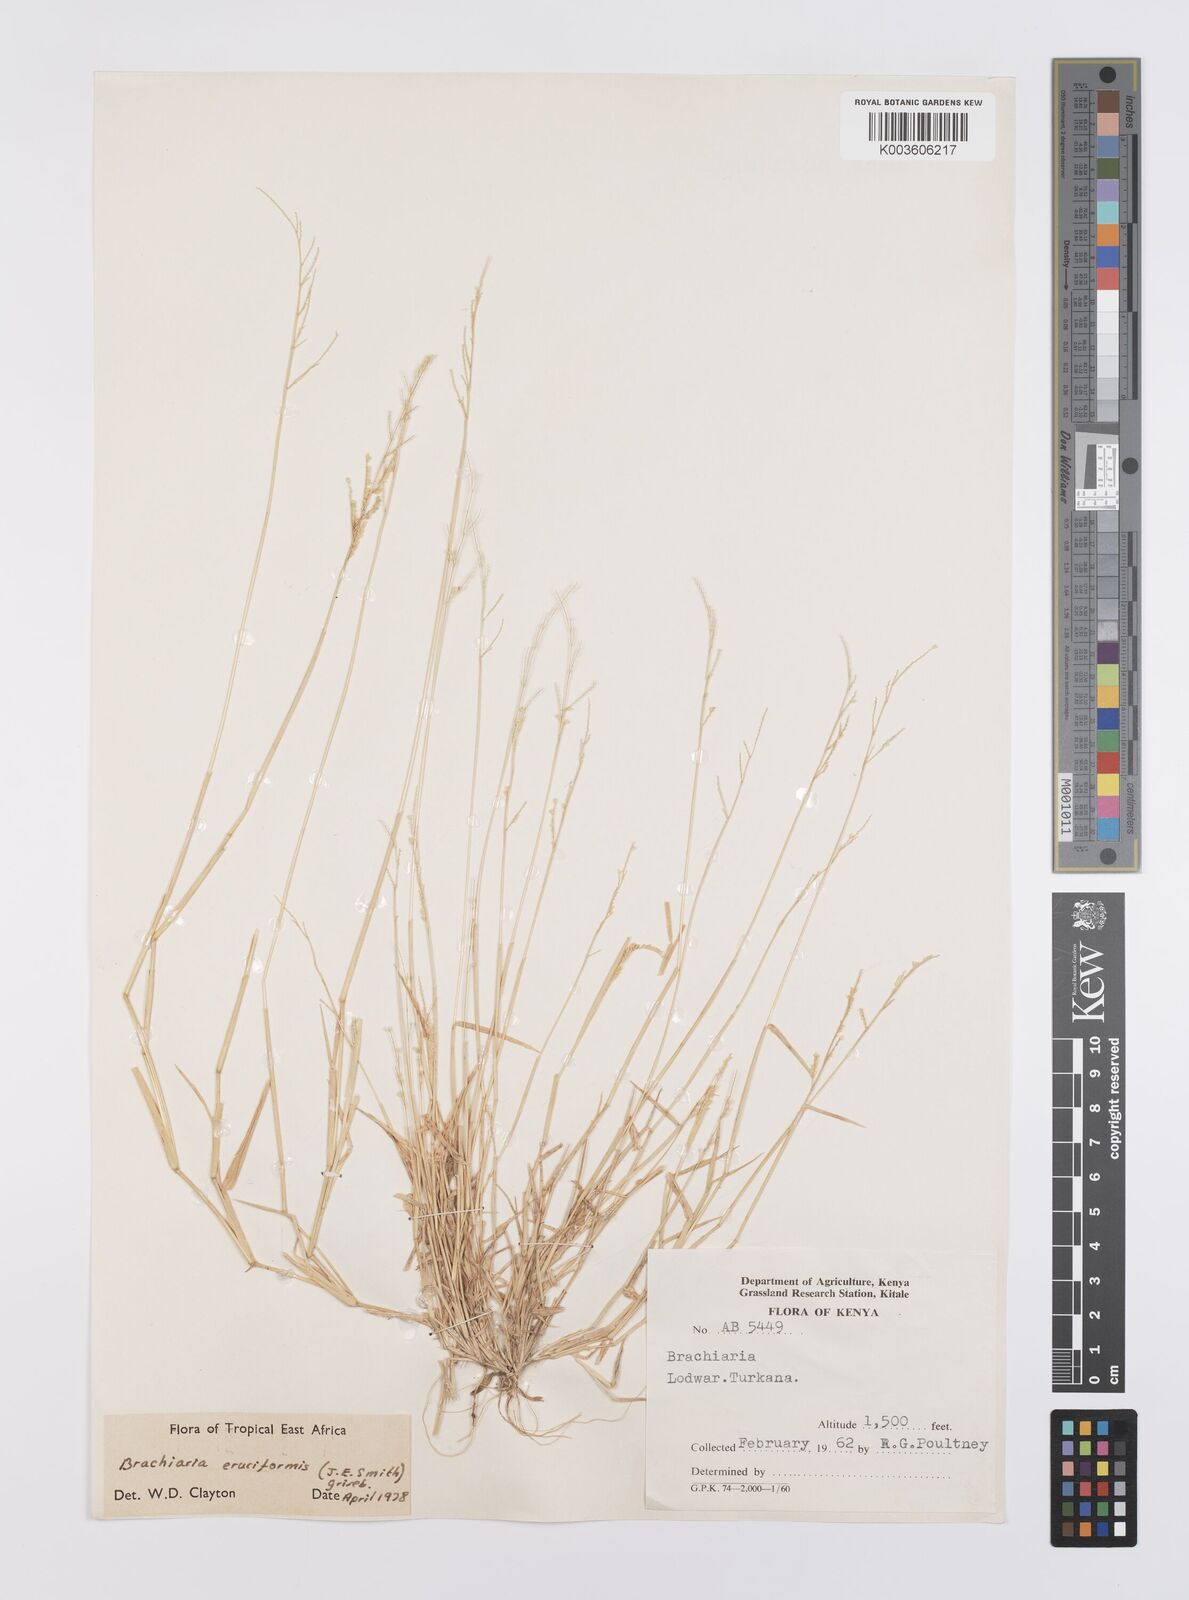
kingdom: Plantae
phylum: Tracheophyta
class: Liliopsida
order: Poales
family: Poaceae
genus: Moorochloa
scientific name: Moorochloa eruciformis
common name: Sweet signalgrass
